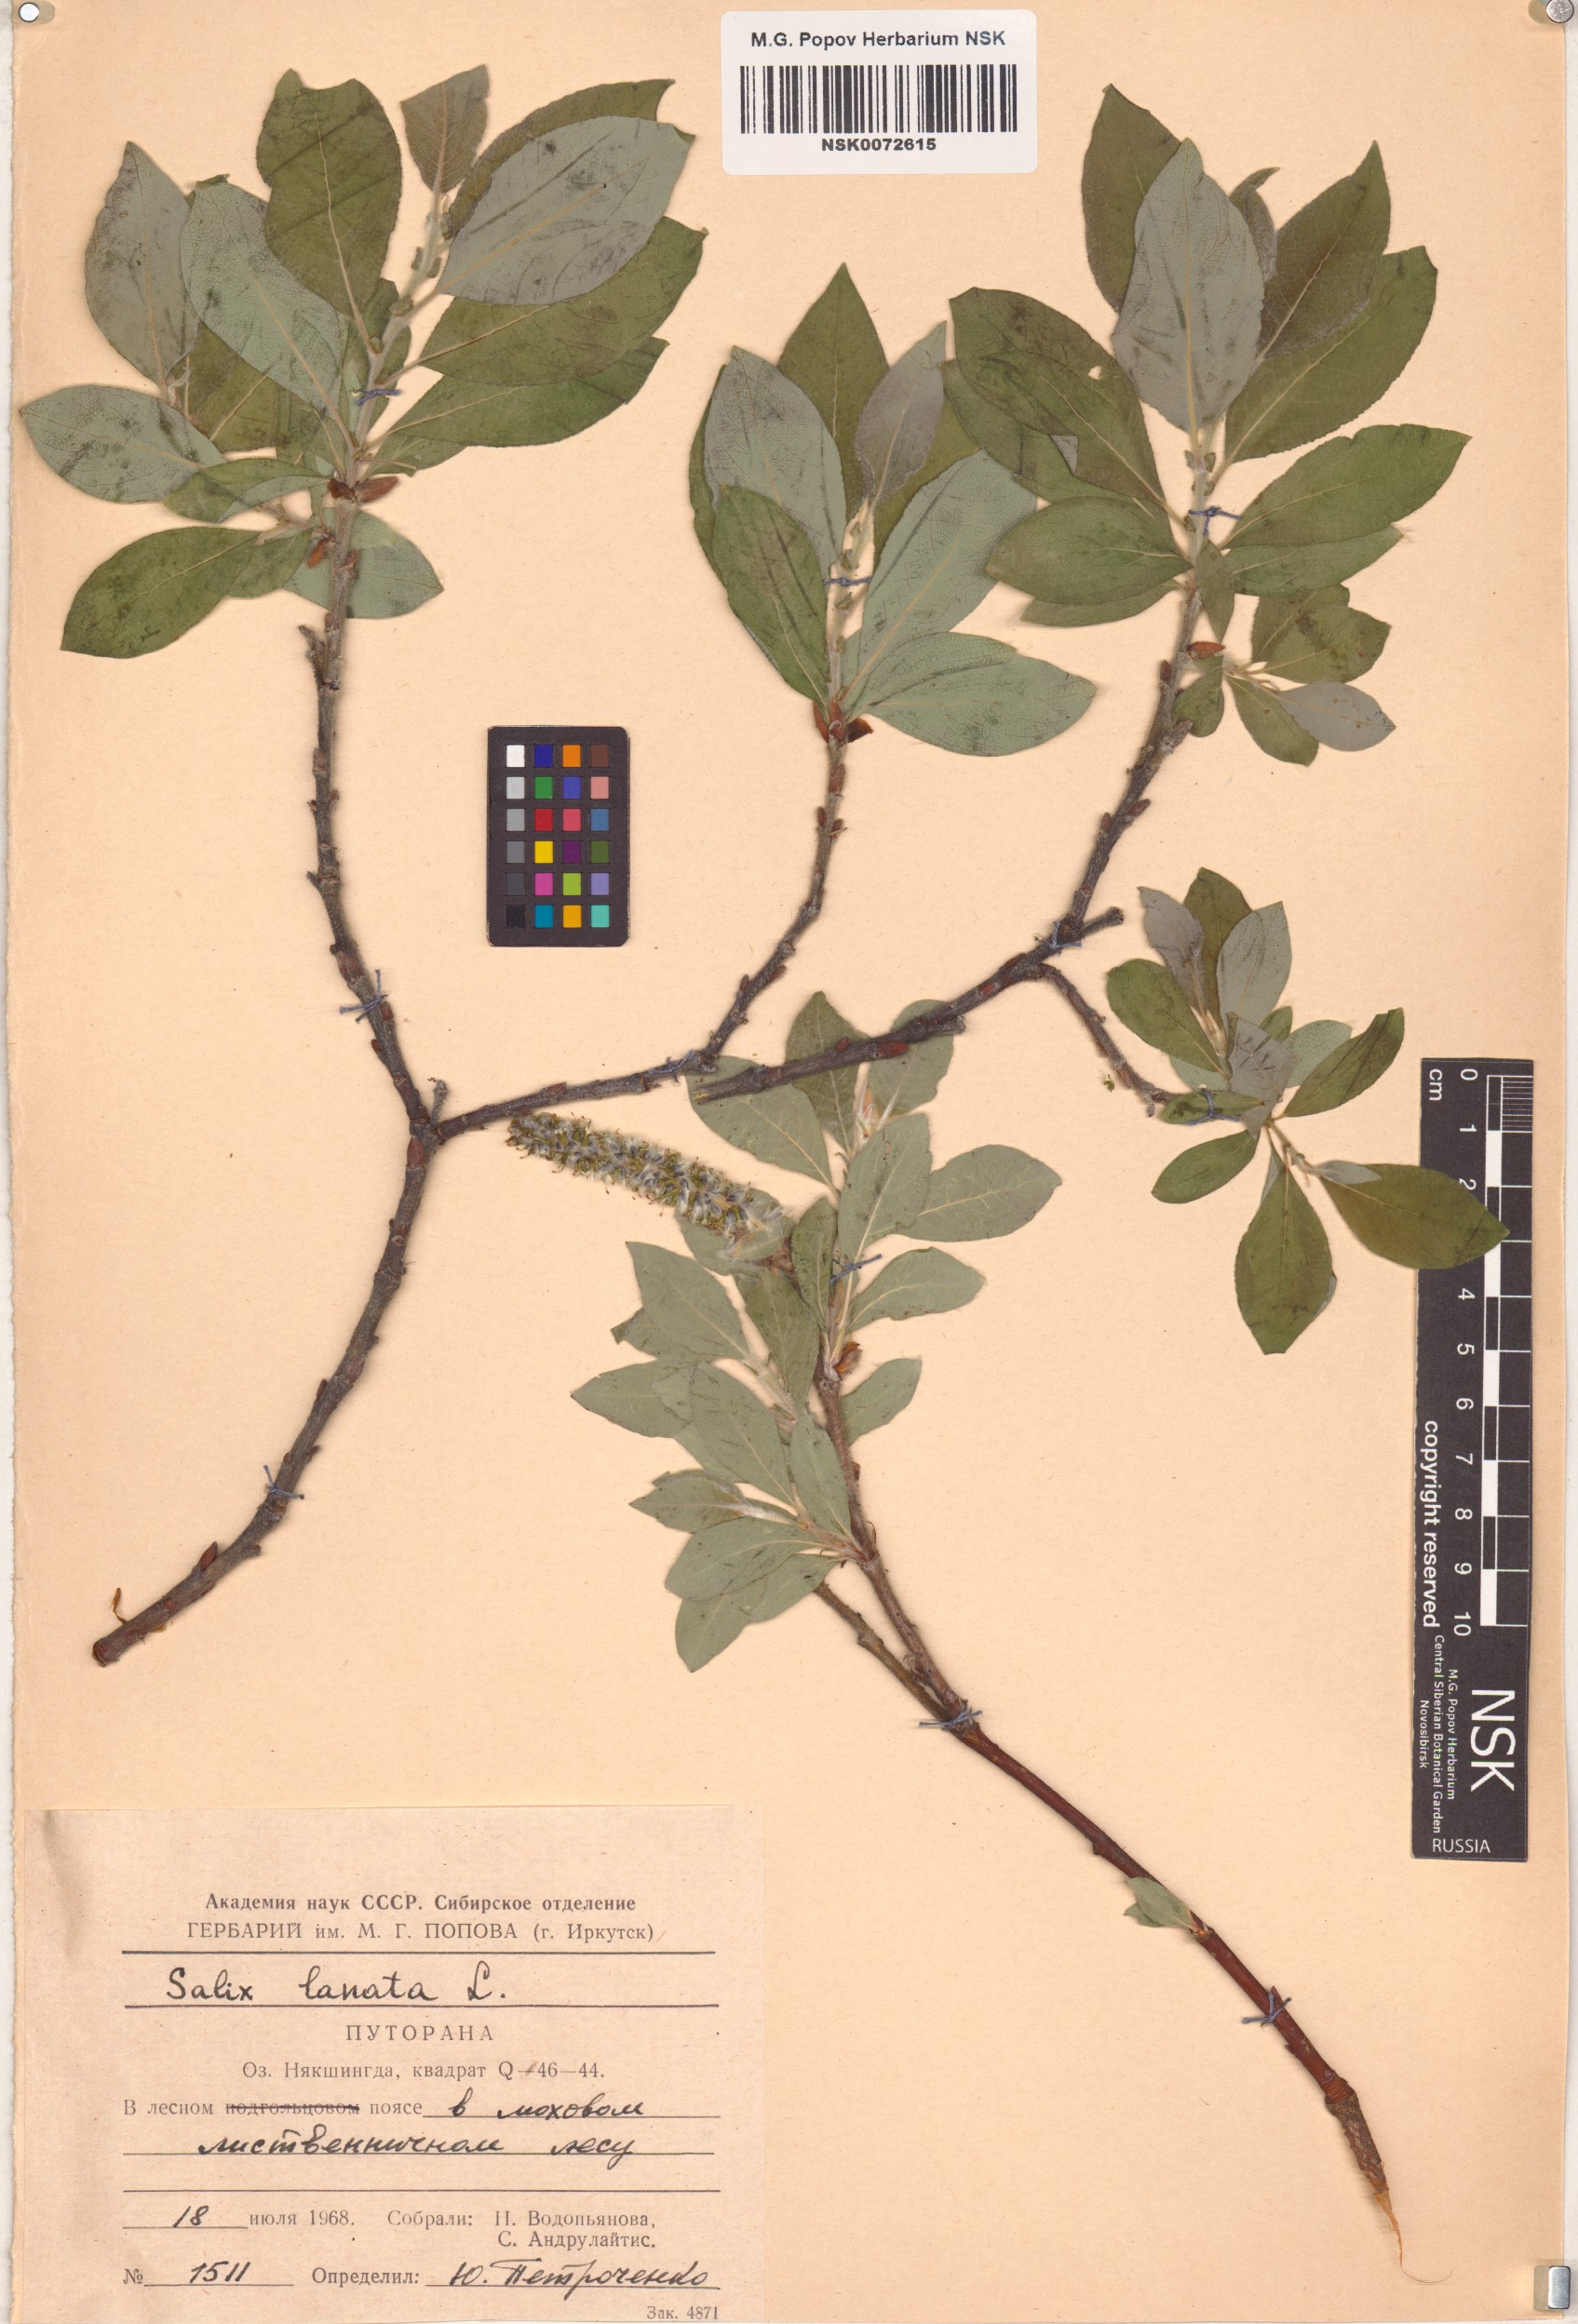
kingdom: Plantae
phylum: Tracheophyta
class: Magnoliopsida
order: Malpighiales
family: Salicaceae
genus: Salix
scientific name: Salix lanata
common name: Woolly willow
